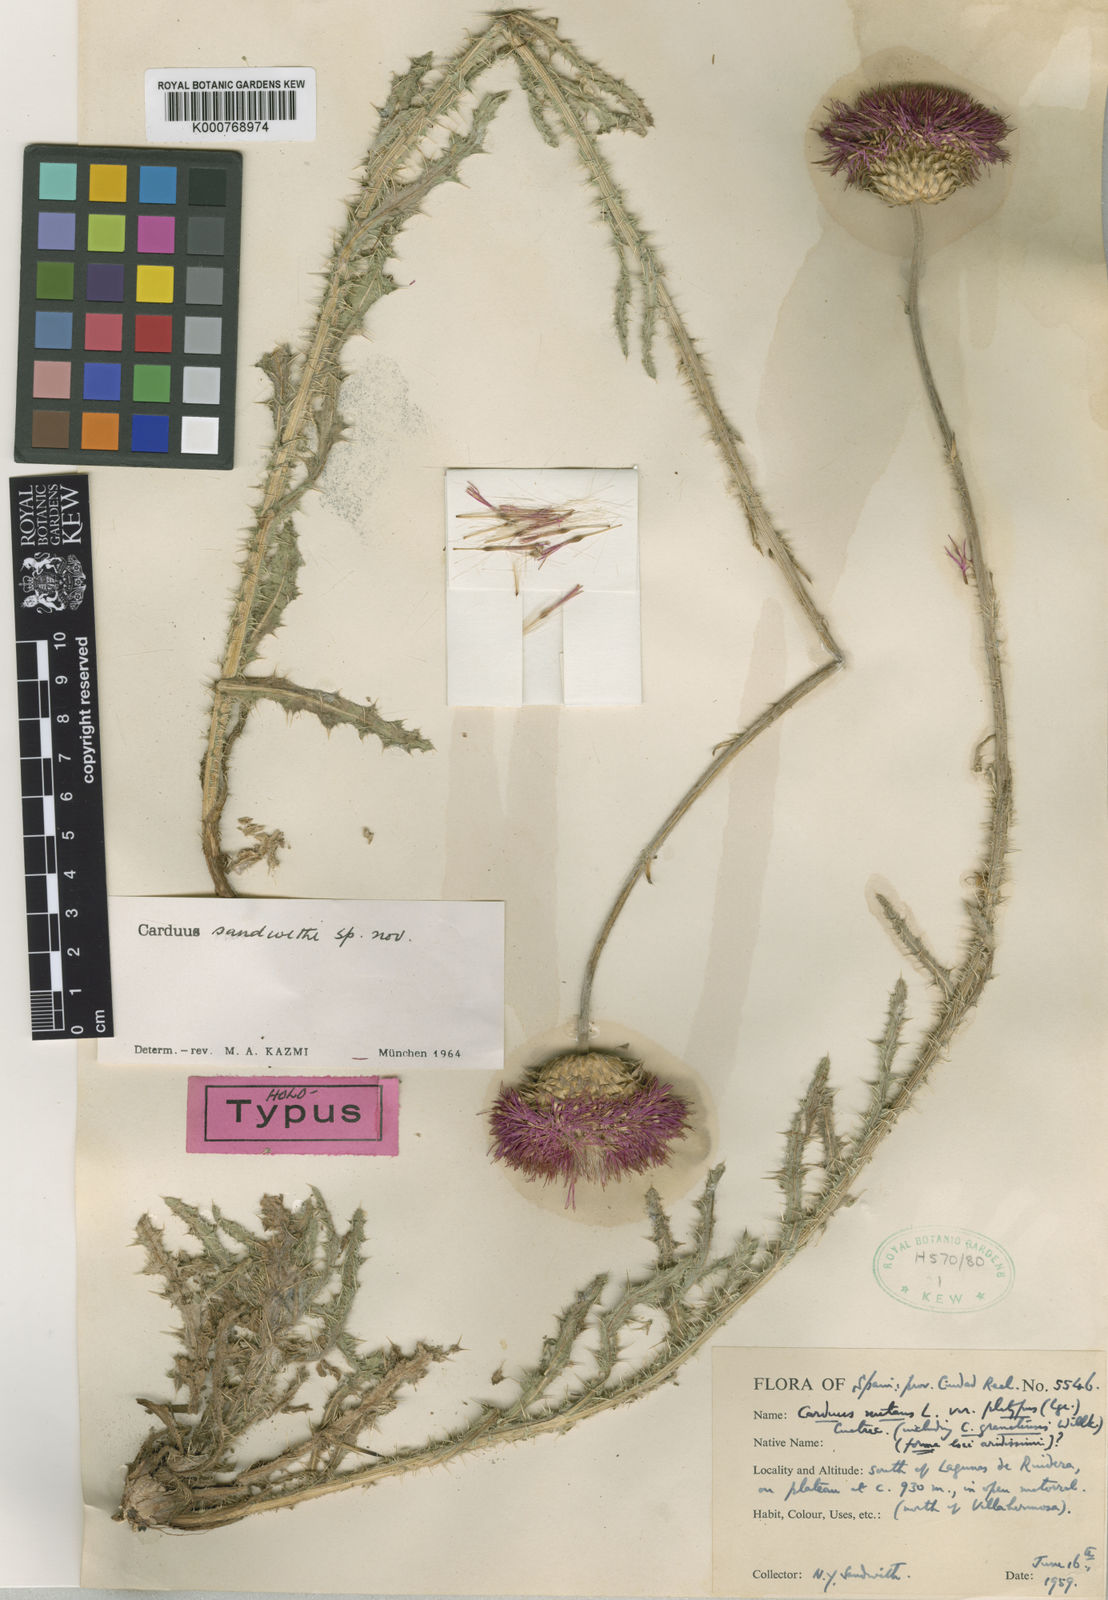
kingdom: Plantae
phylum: Tracheophyta
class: Magnoliopsida
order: Asterales
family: Asteraceae
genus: Carduus
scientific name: Carduus platypus
